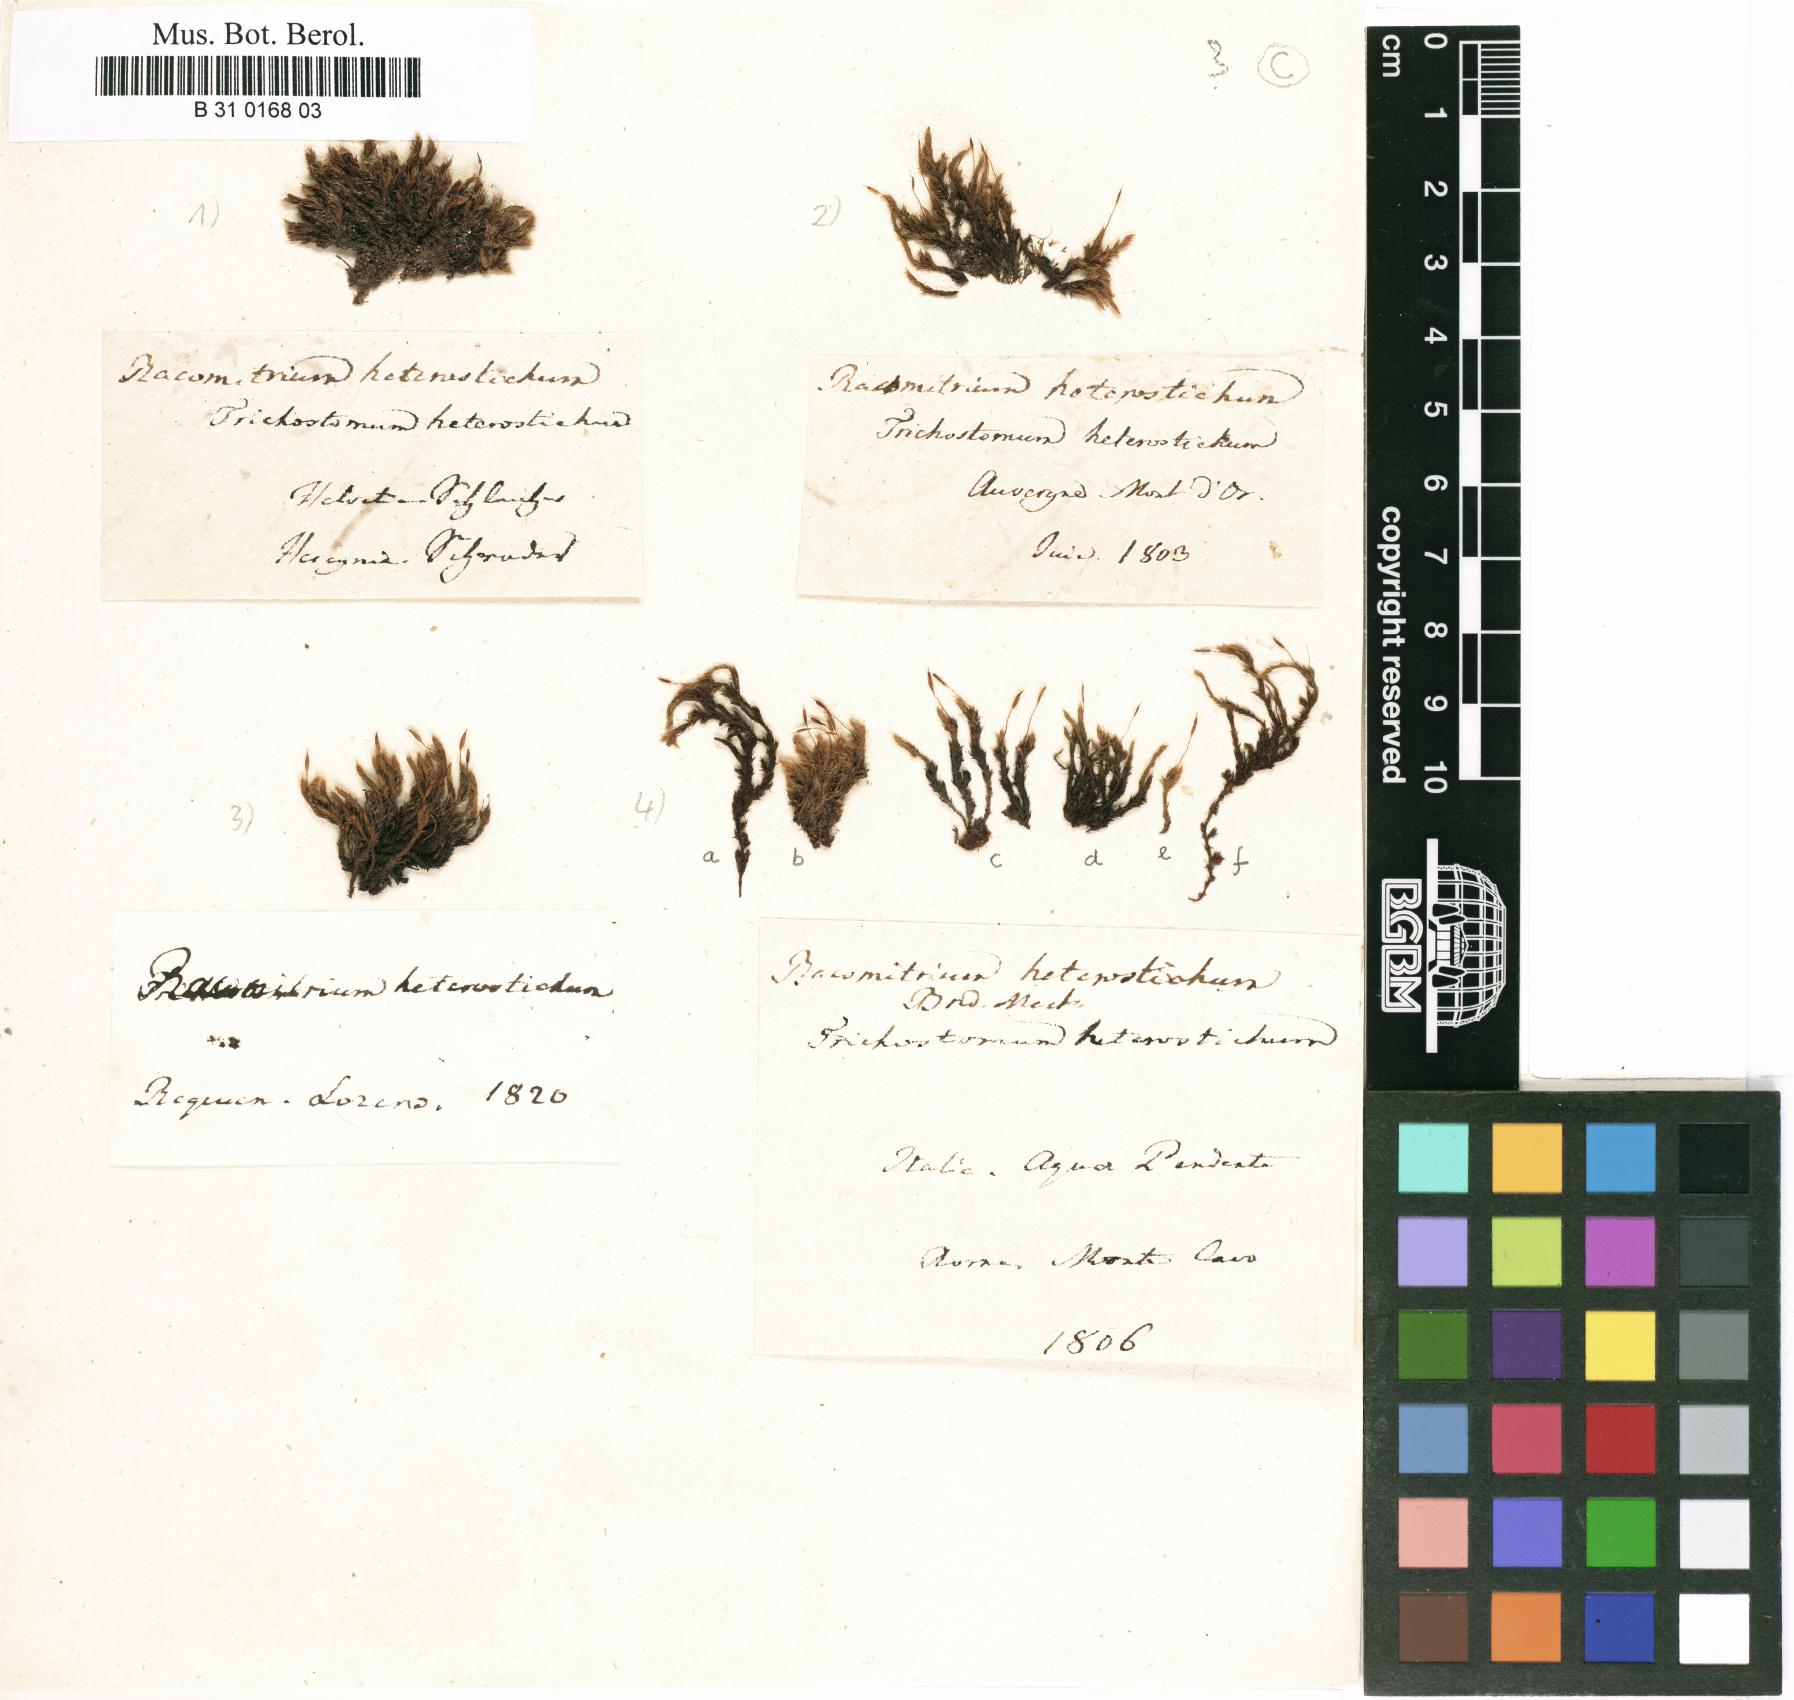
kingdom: Plantae
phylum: Bryophyta
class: Bryopsida
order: Grimmiales
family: Grimmiaceae
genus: Bucklandiella
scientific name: Bucklandiella affinis
